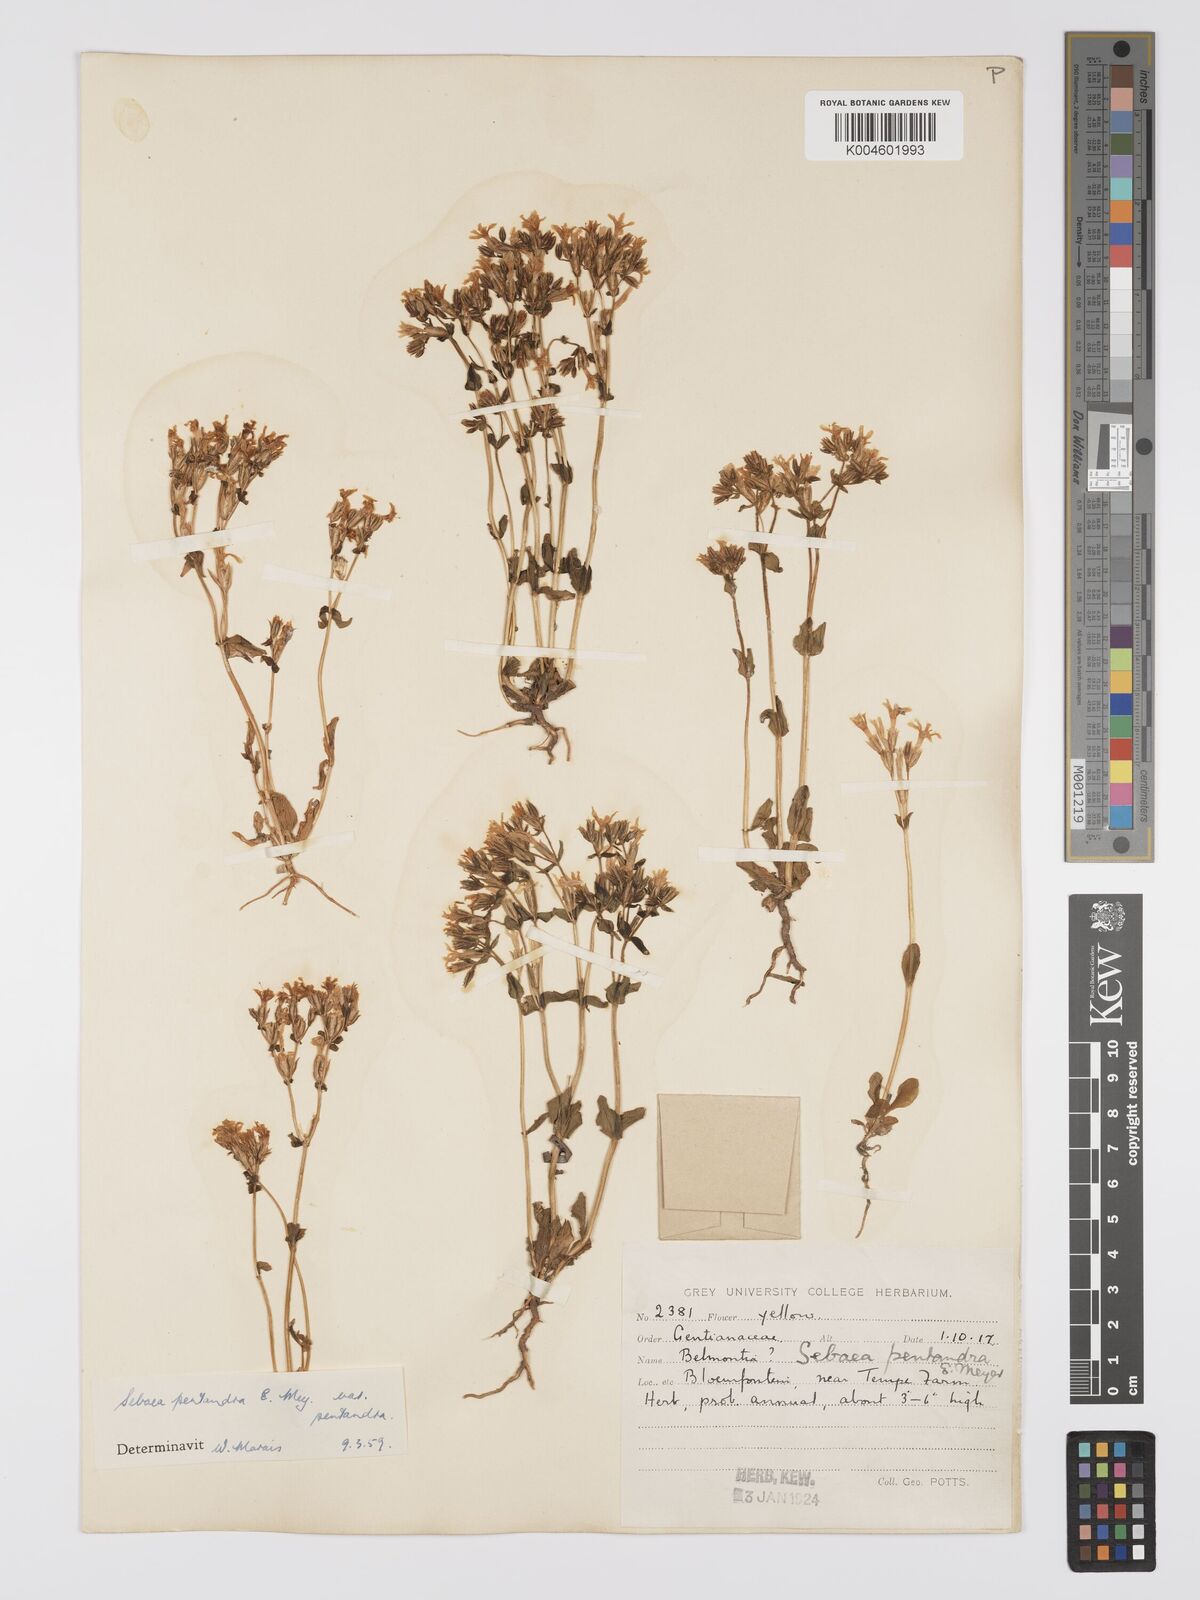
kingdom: Plantae
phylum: Tracheophyta
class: Magnoliopsida
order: Gentianales
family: Gentianaceae
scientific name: Gentianaceae
